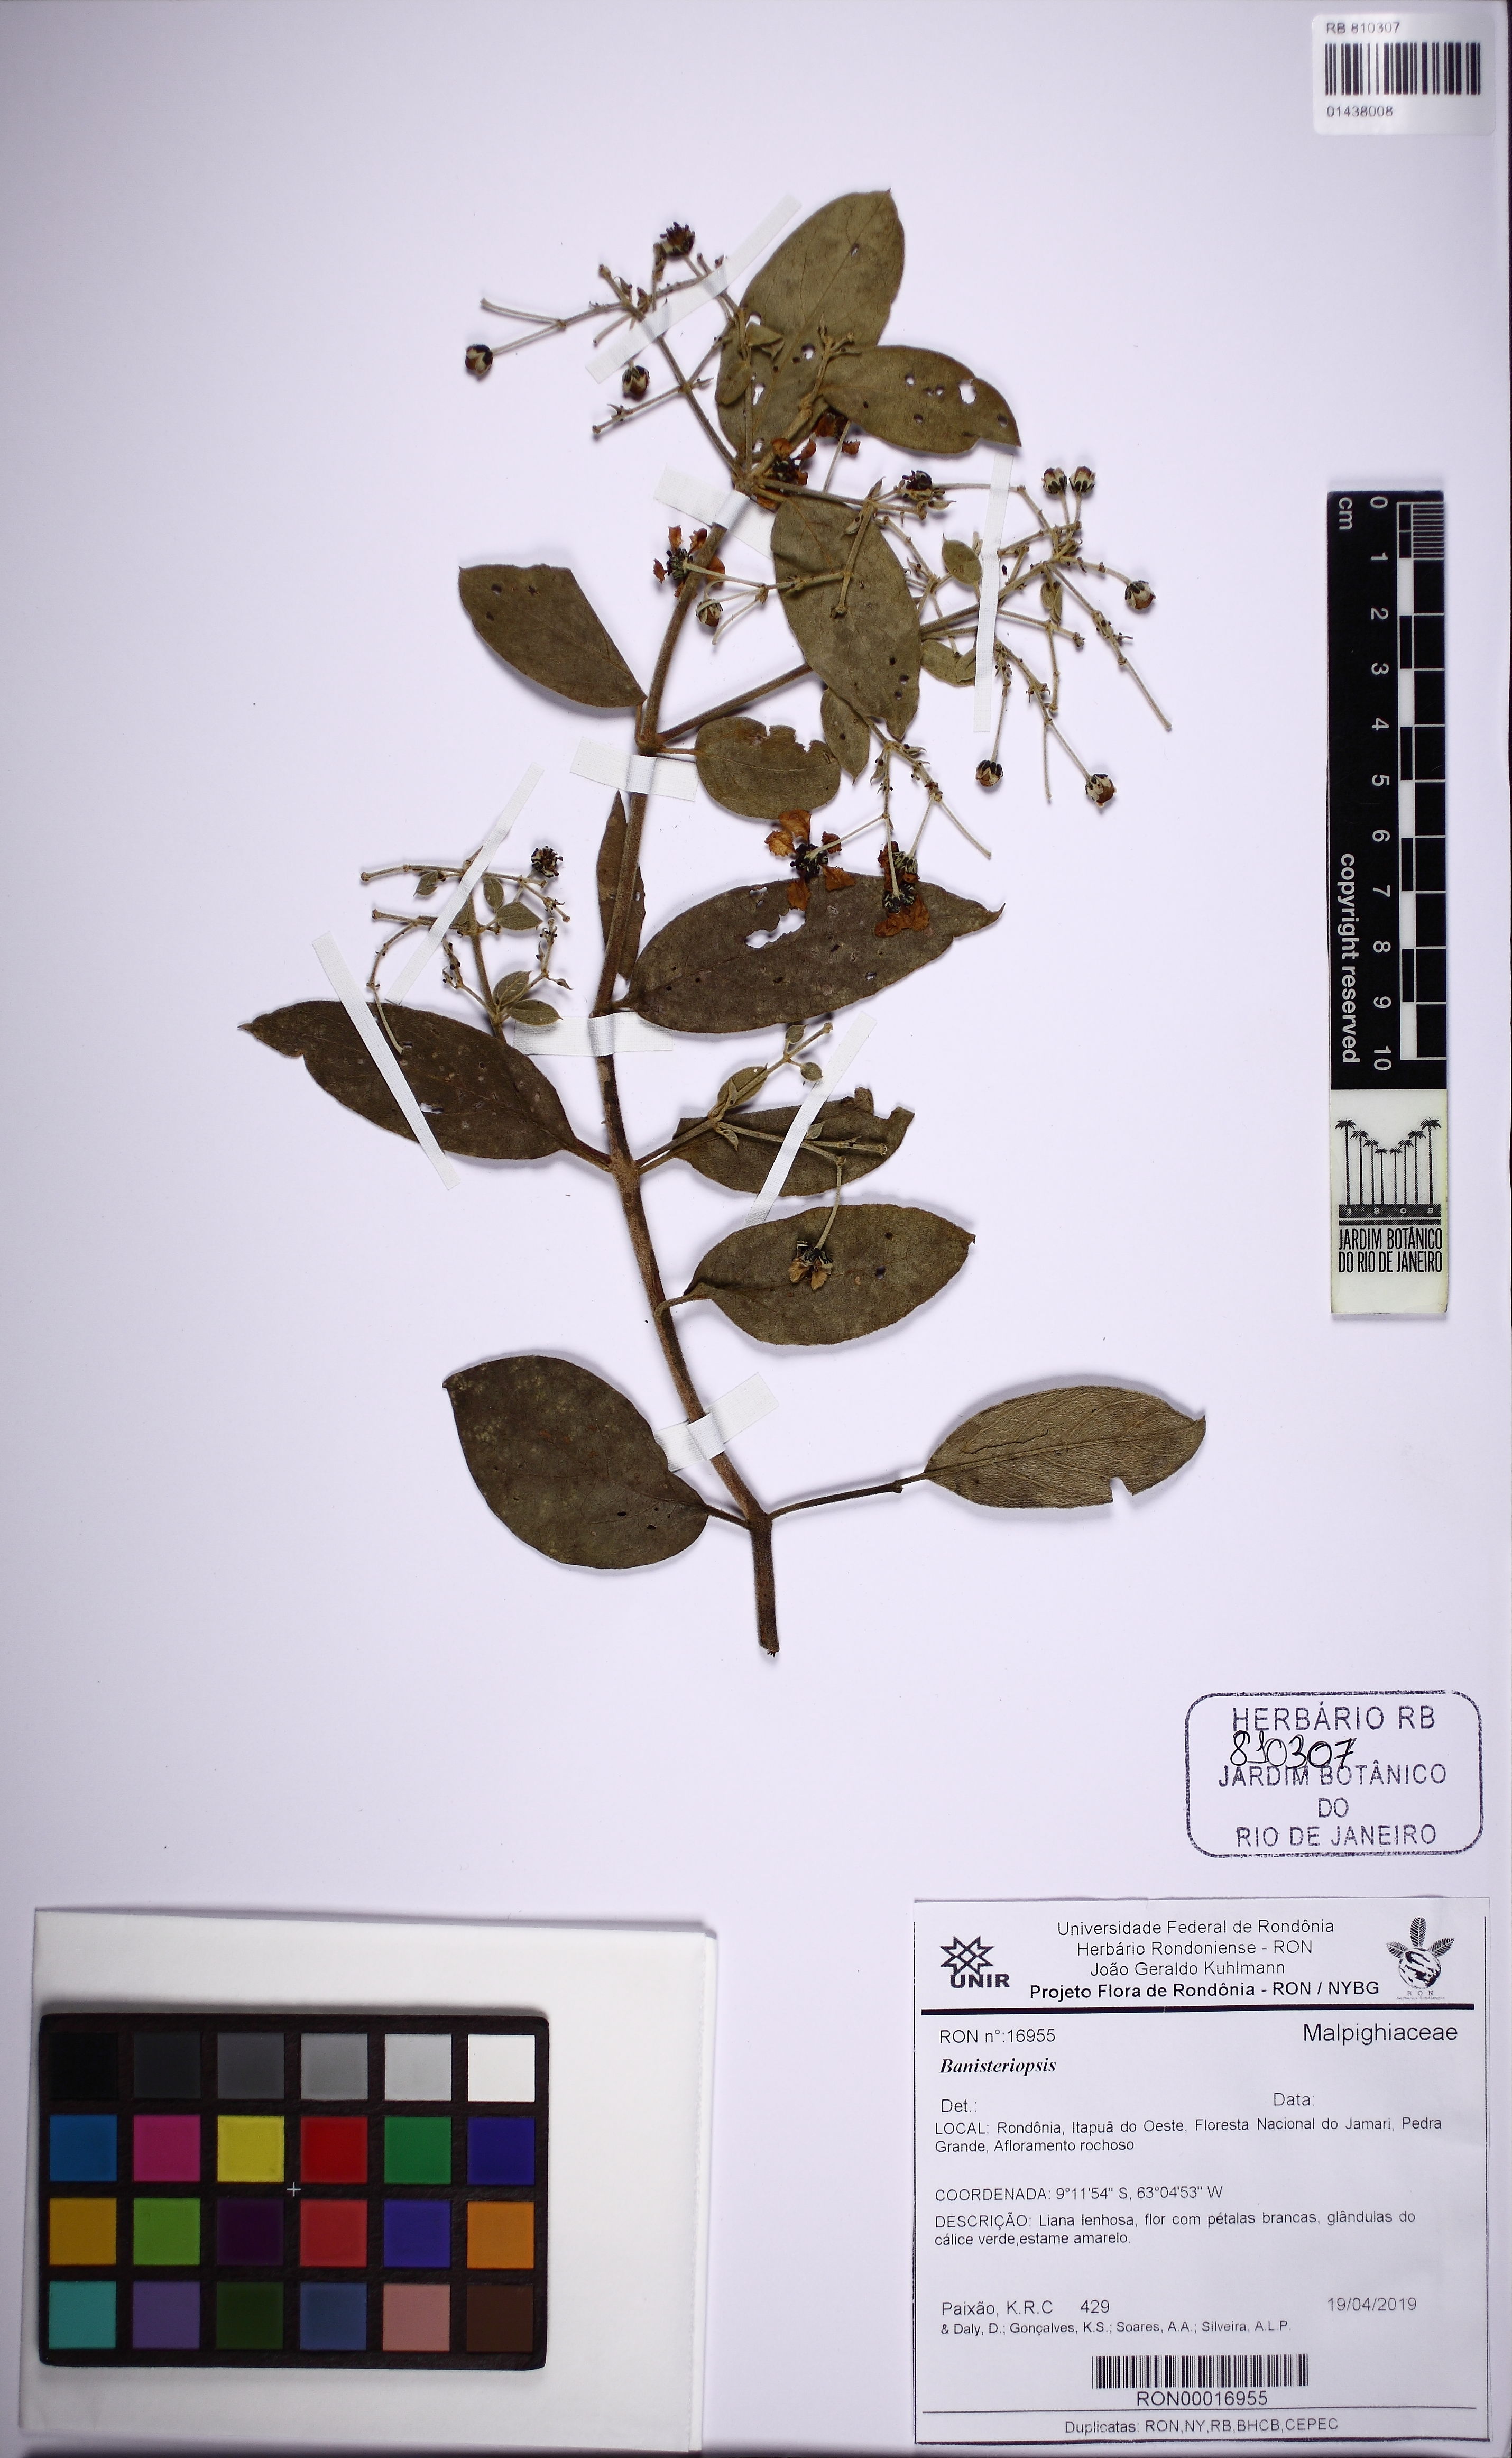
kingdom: Plantae
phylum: Tracheophyta
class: Magnoliopsida
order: Malpighiales
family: Malpighiaceae
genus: Banisteriopsis
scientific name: Banisteriopsis
